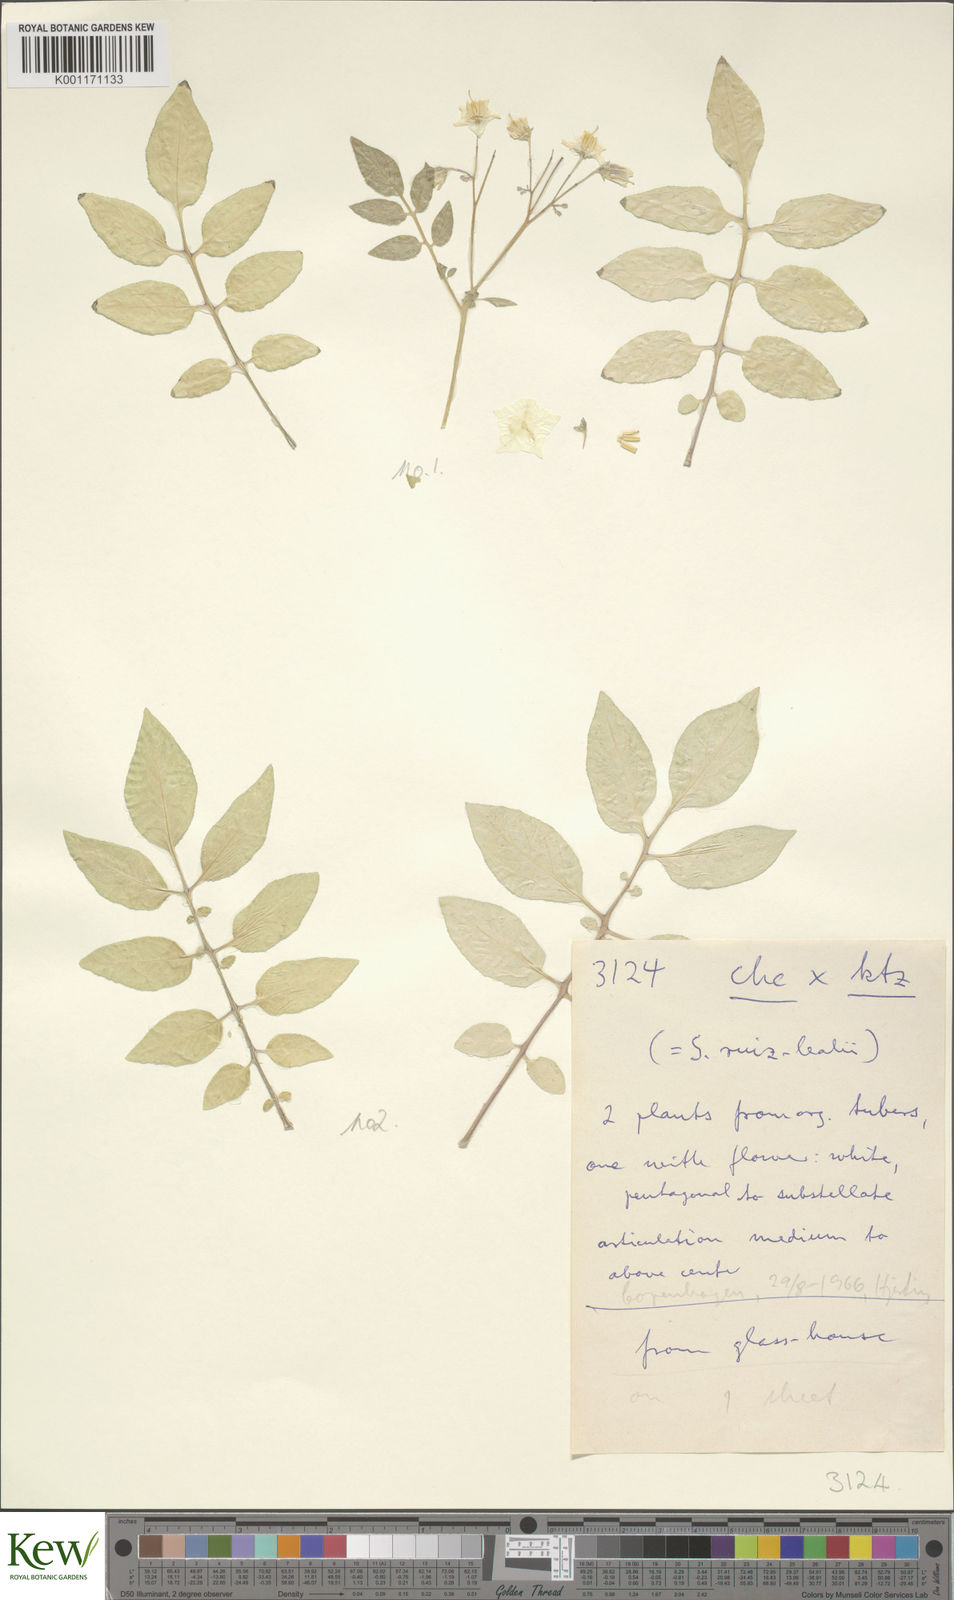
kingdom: Plantae
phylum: Tracheophyta
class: Magnoliopsida
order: Solanales
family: Solanaceae
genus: Solanum
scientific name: Solanum chacoense
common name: Chaco potato
